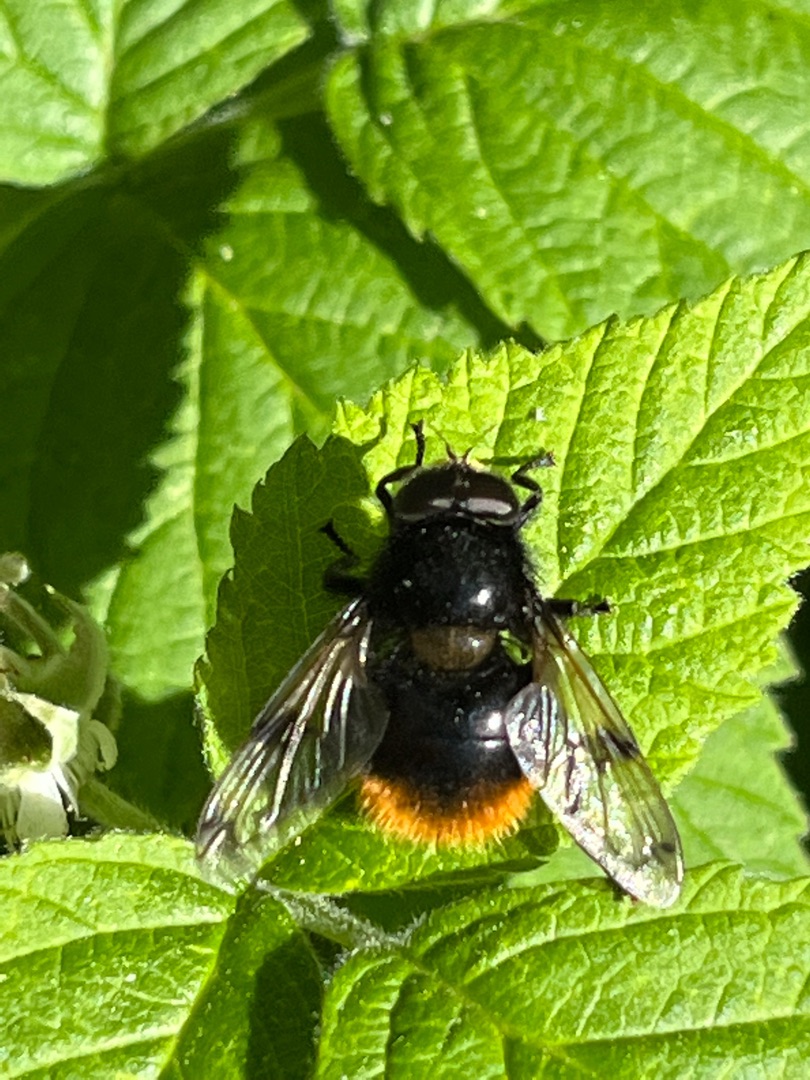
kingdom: Animalia
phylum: Arthropoda
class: Insecta
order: Diptera
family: Syrphidae
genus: Volucella
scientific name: Volucella bombylans
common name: Foranderlig humlesvirreflue
